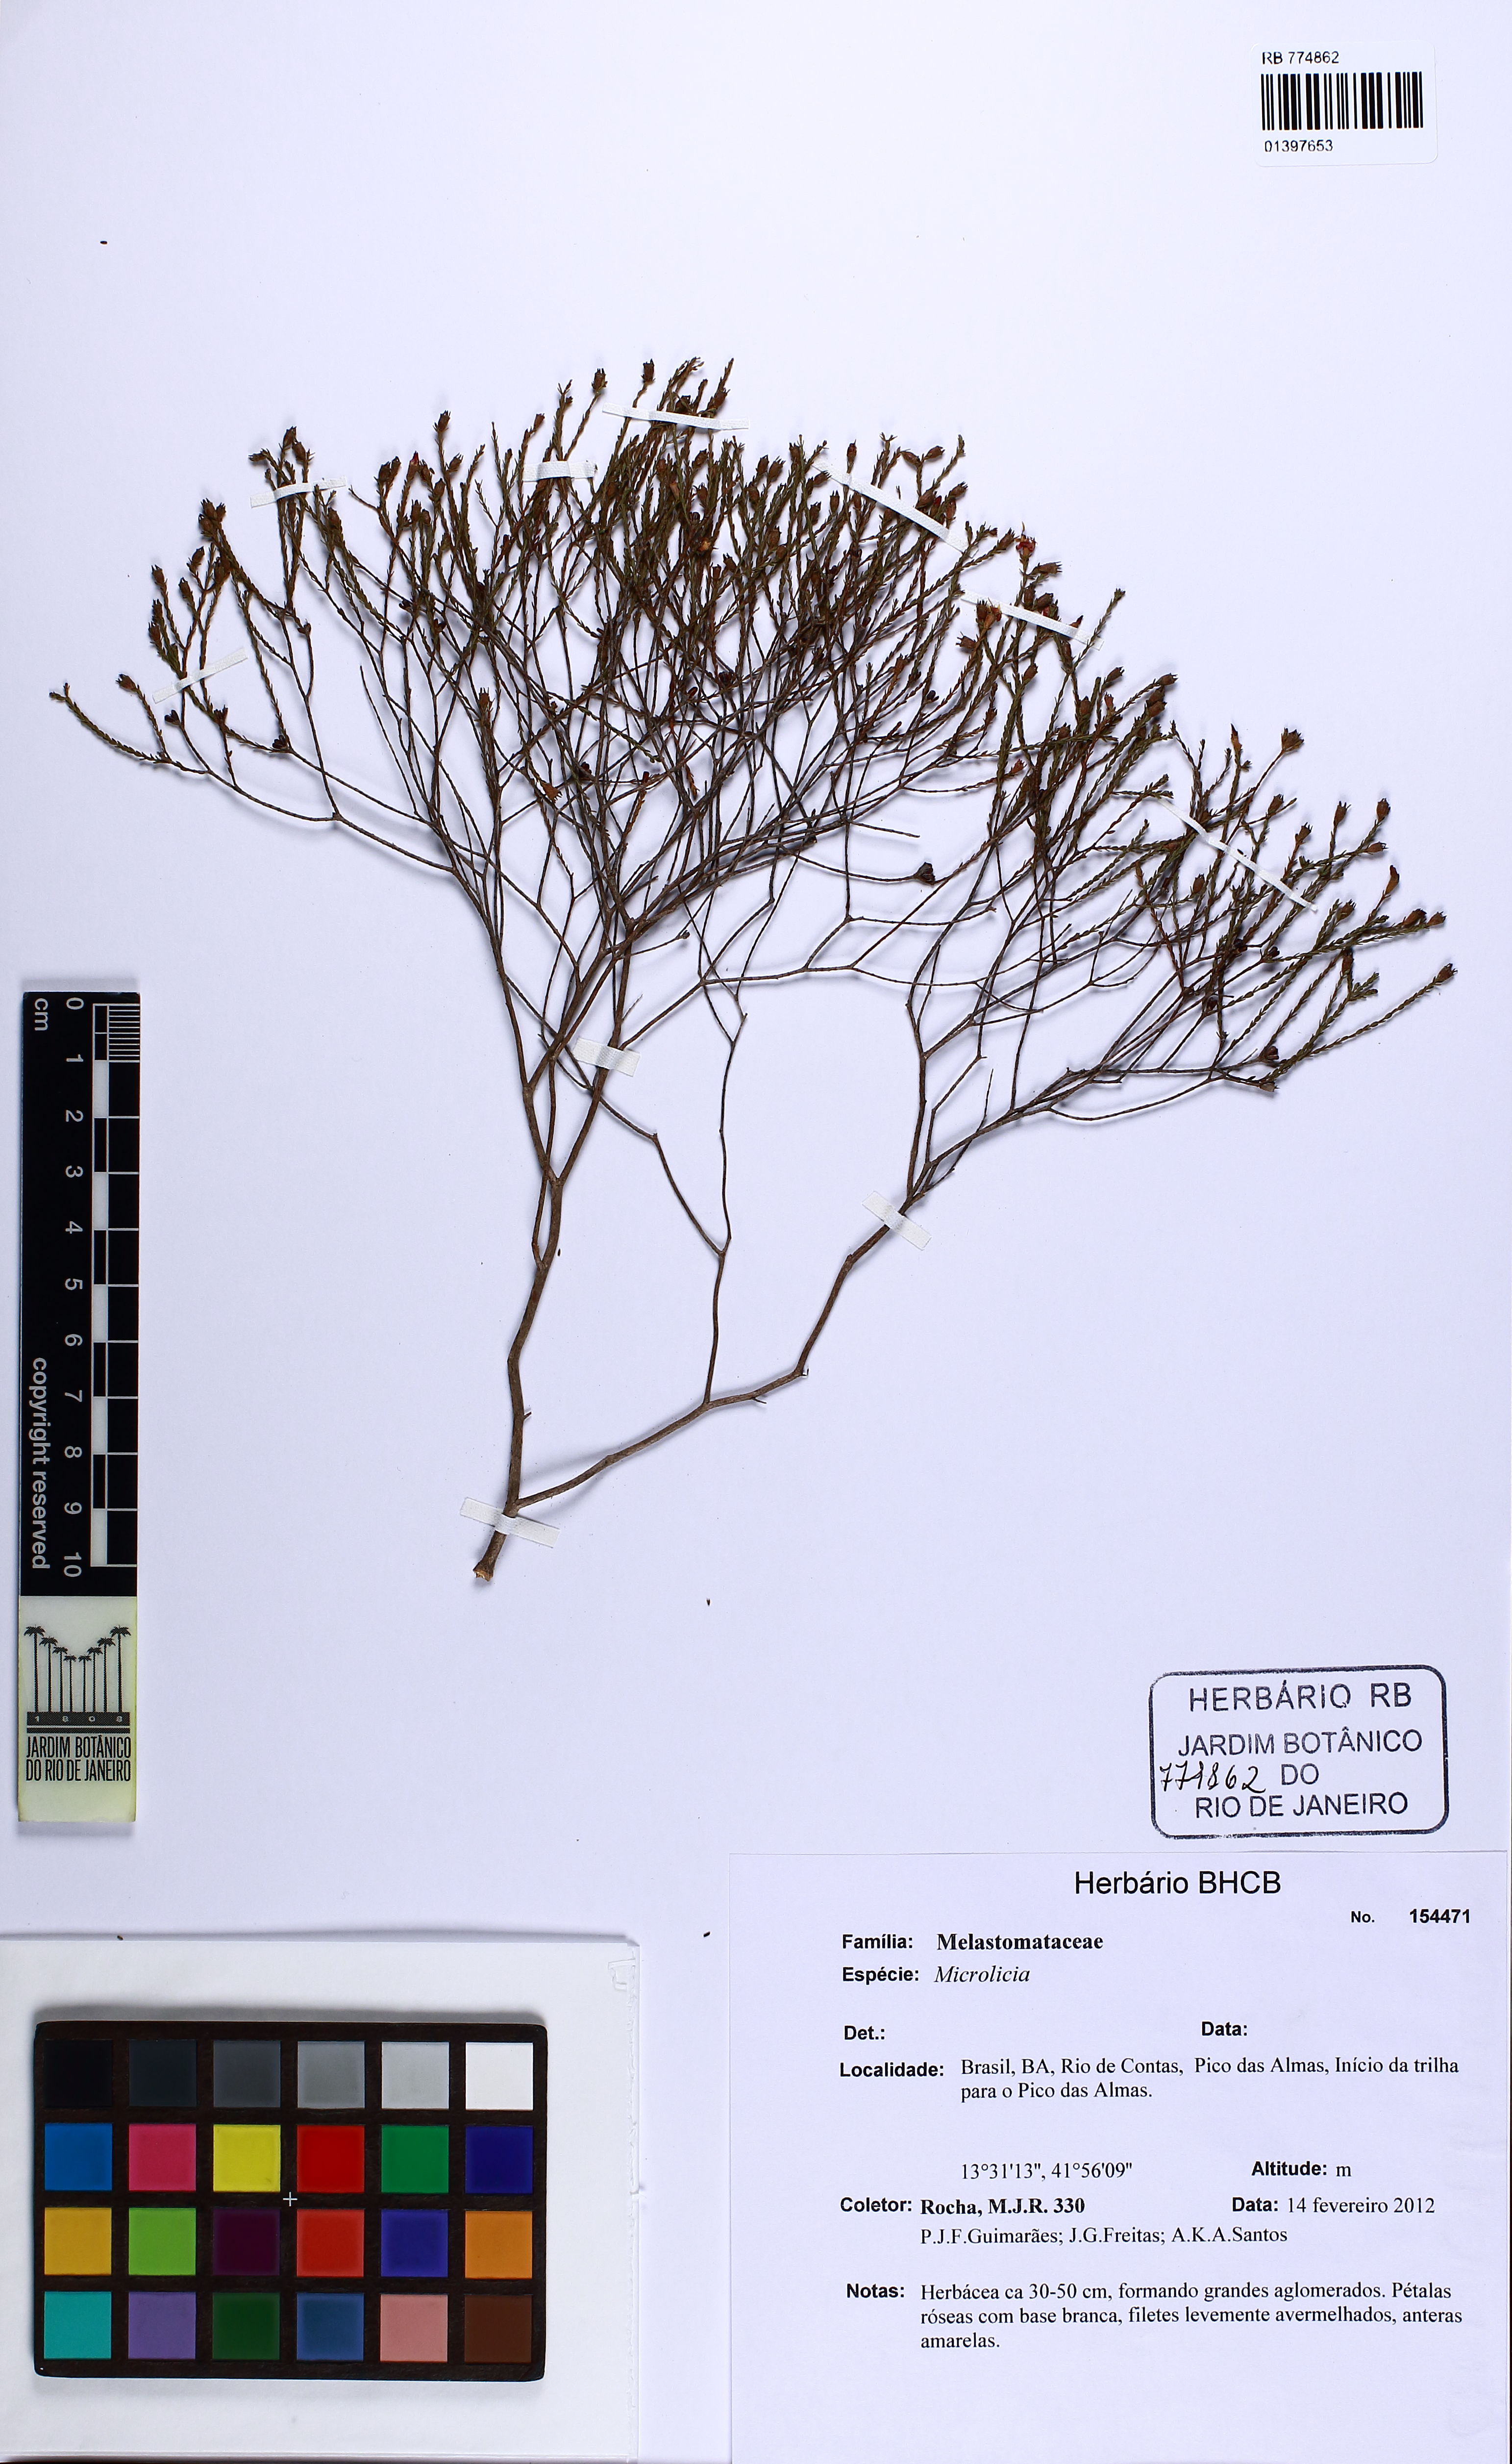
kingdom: Plantae
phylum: Tracheophyta
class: Magnoliopsida
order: Myrtales
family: Melastomataceae
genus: Microlicia
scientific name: Microlicia minima
